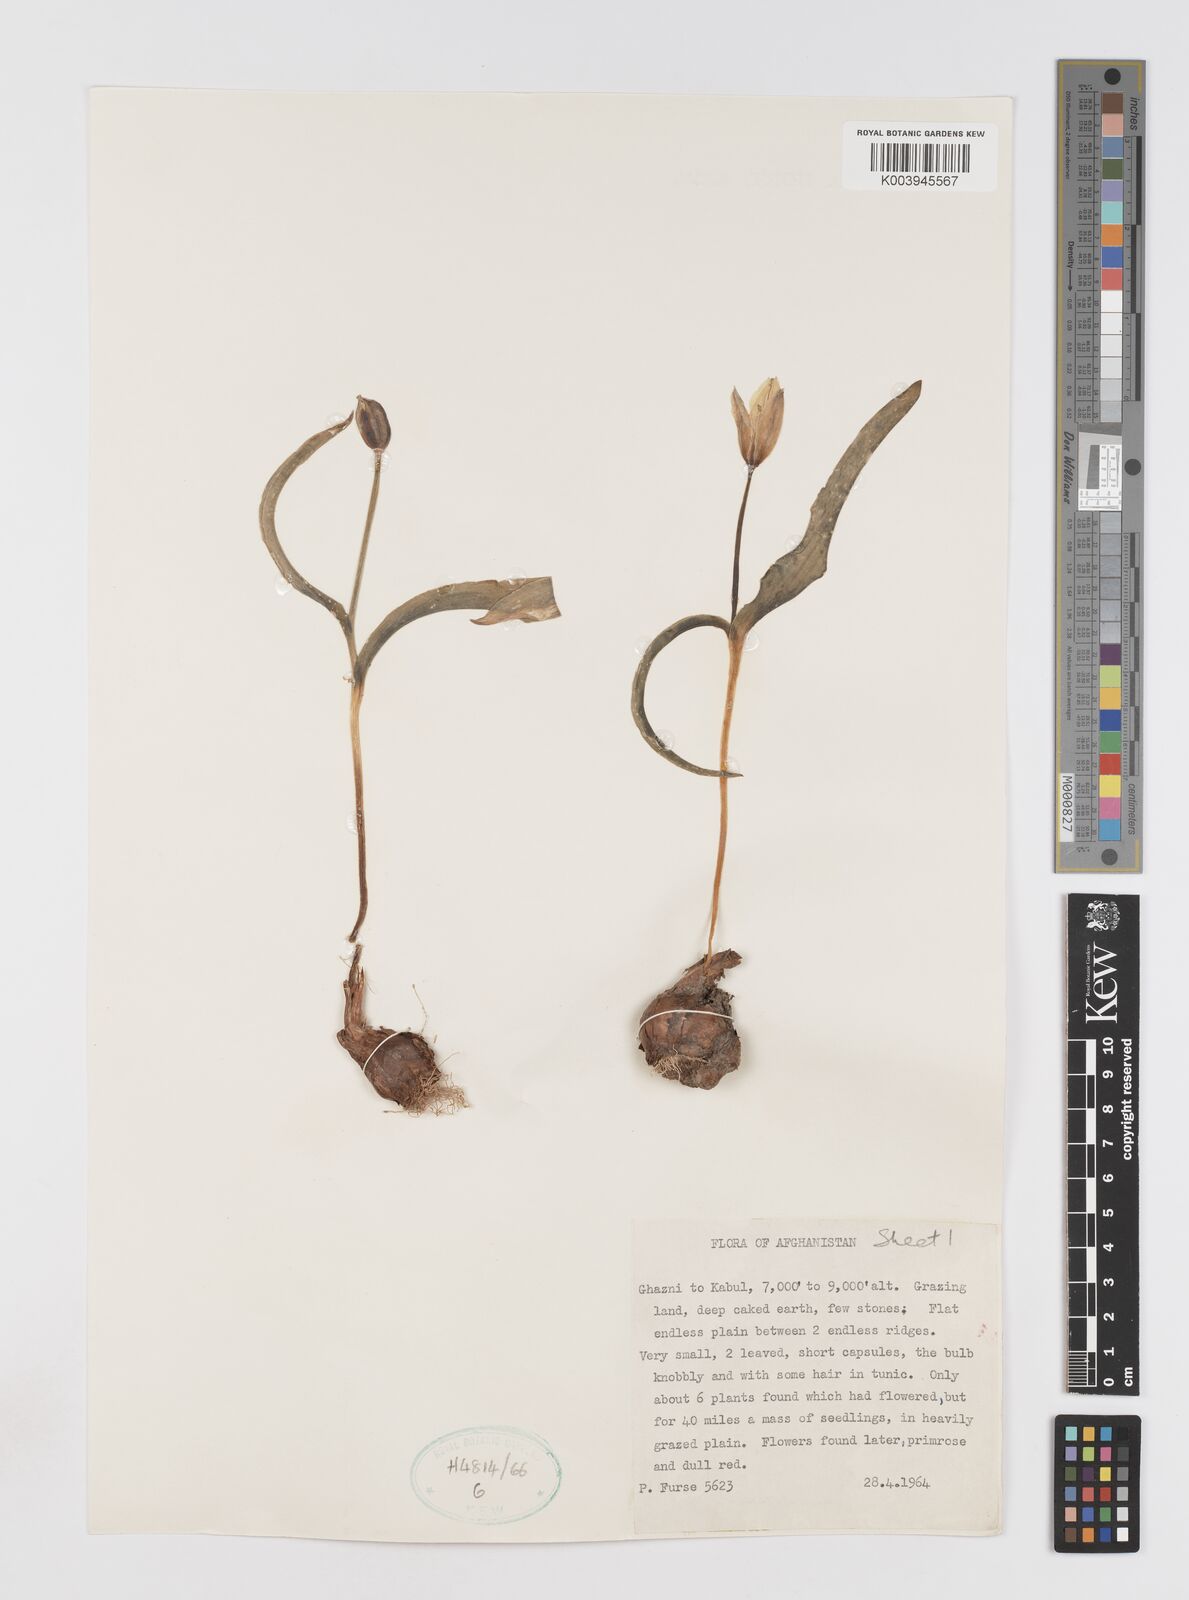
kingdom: Plantae
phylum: Tracheophyta
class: Liliopsida
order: Liliales
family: Liliaceae
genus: Tulipa
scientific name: Tulipa biflora
